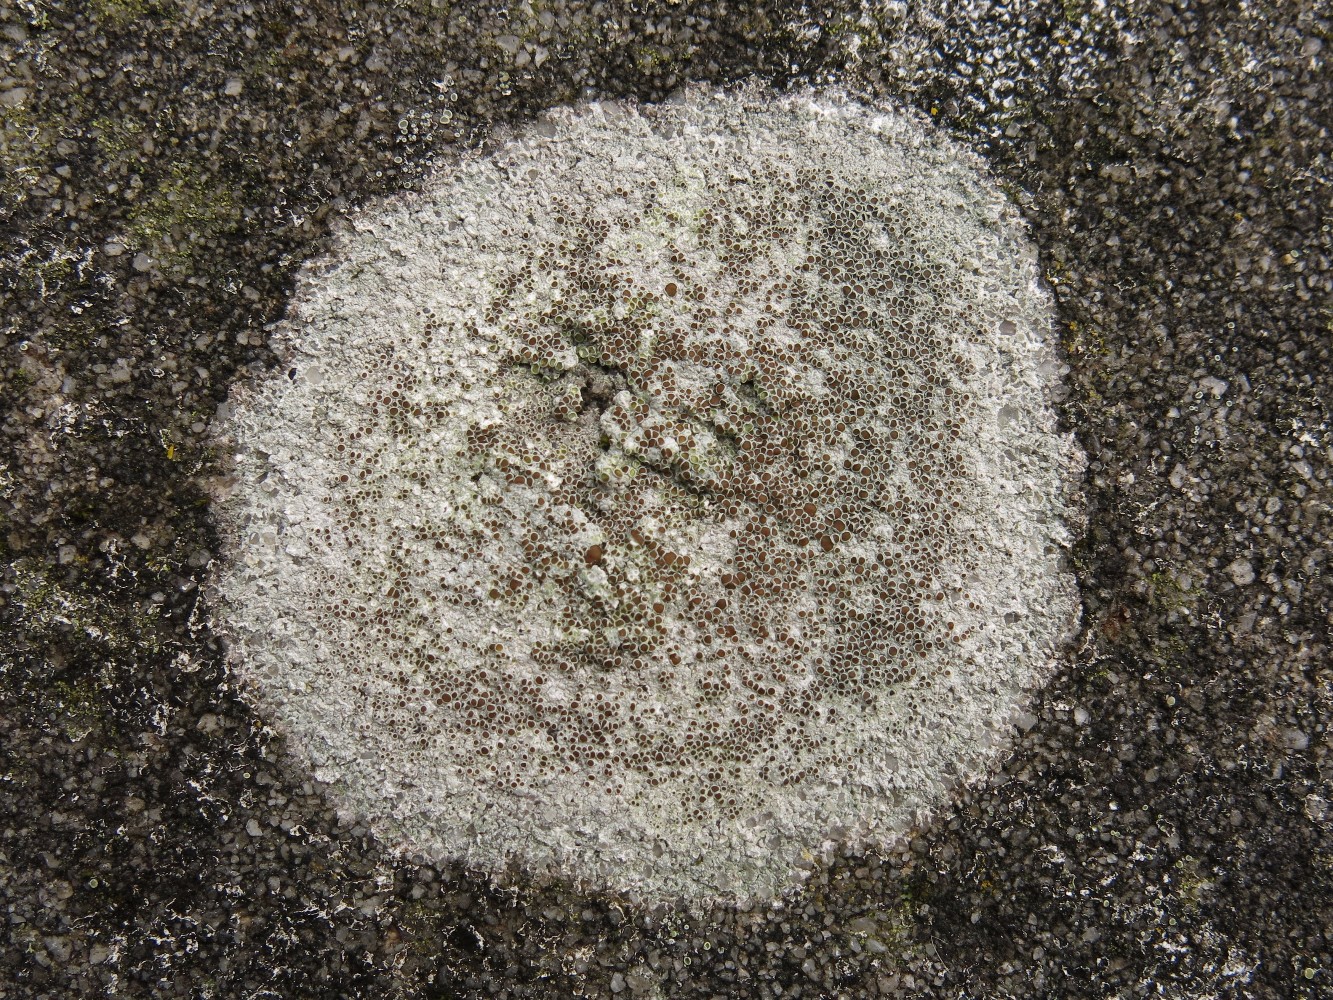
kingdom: Fungi
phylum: Ascomycota
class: Lecanoromycetes
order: Lecanorales
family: Lecanoraceae
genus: Lecanora
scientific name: Lecanora campestris
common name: mur-kantskivelav
